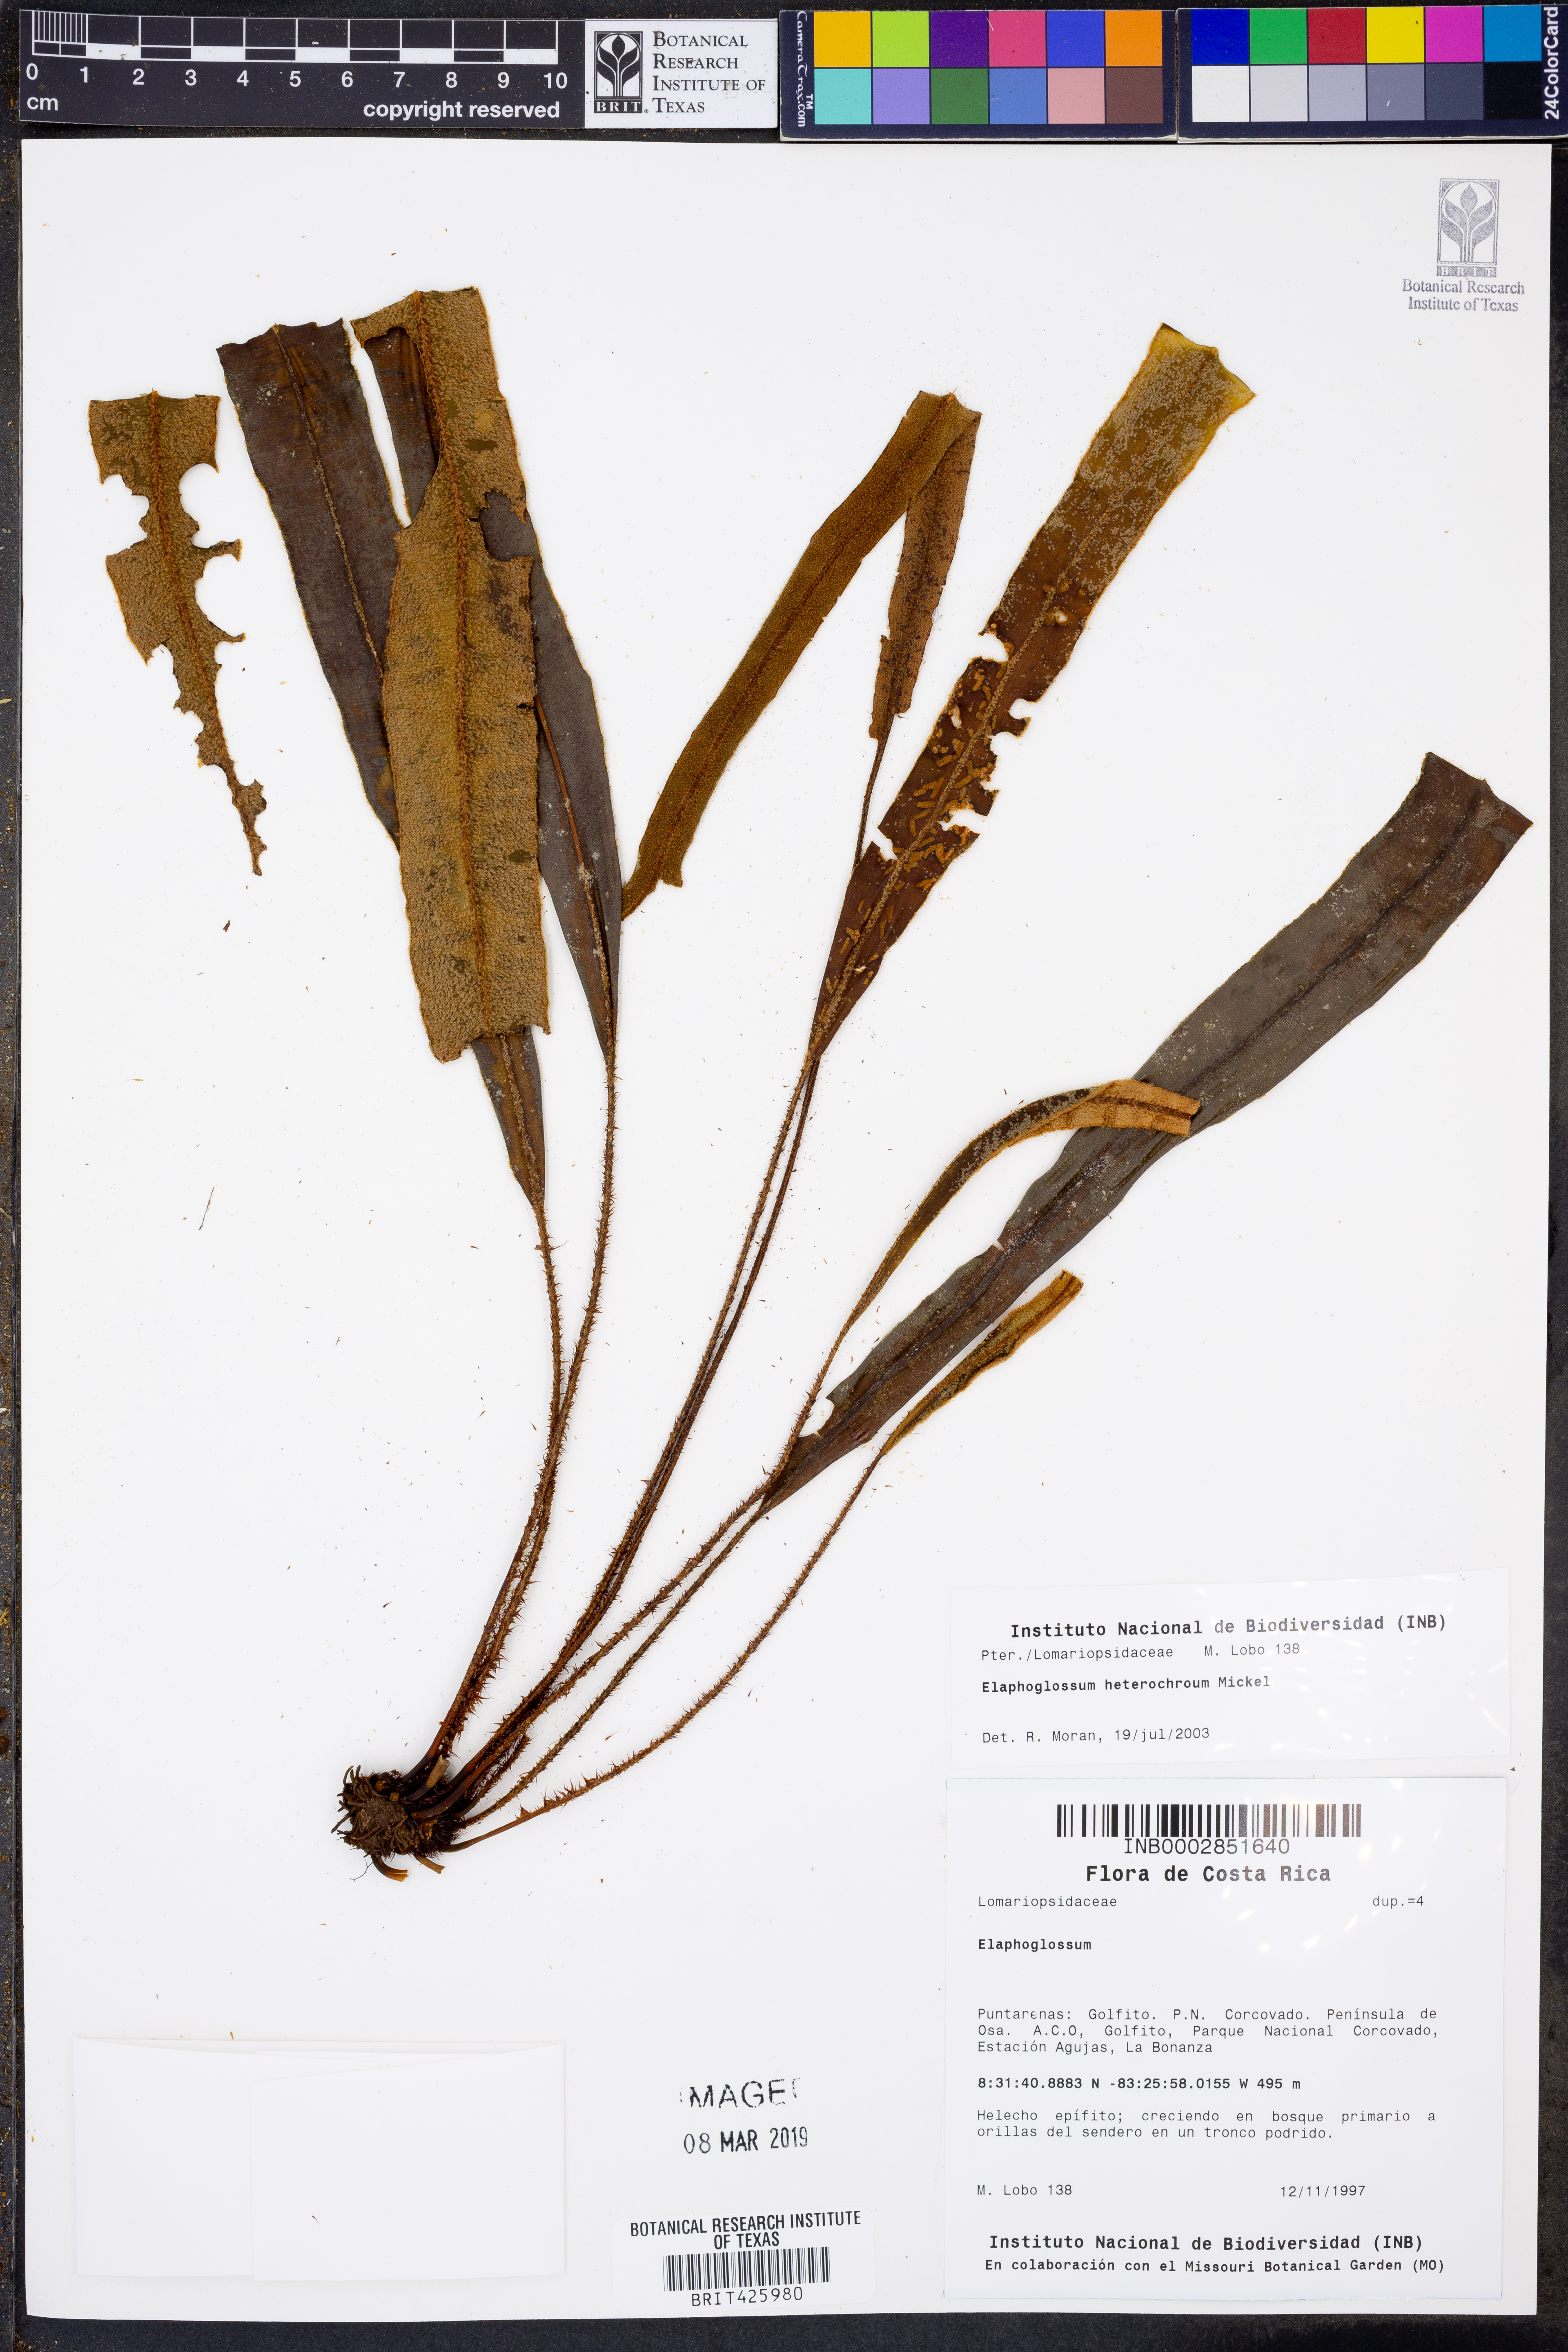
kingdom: Plantae
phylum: Tracheophyta
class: Polypodiopsida
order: Polypodiales
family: Dryopteridaceae
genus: Elaphoglossum
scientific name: Elaphoglossum heterochroum
